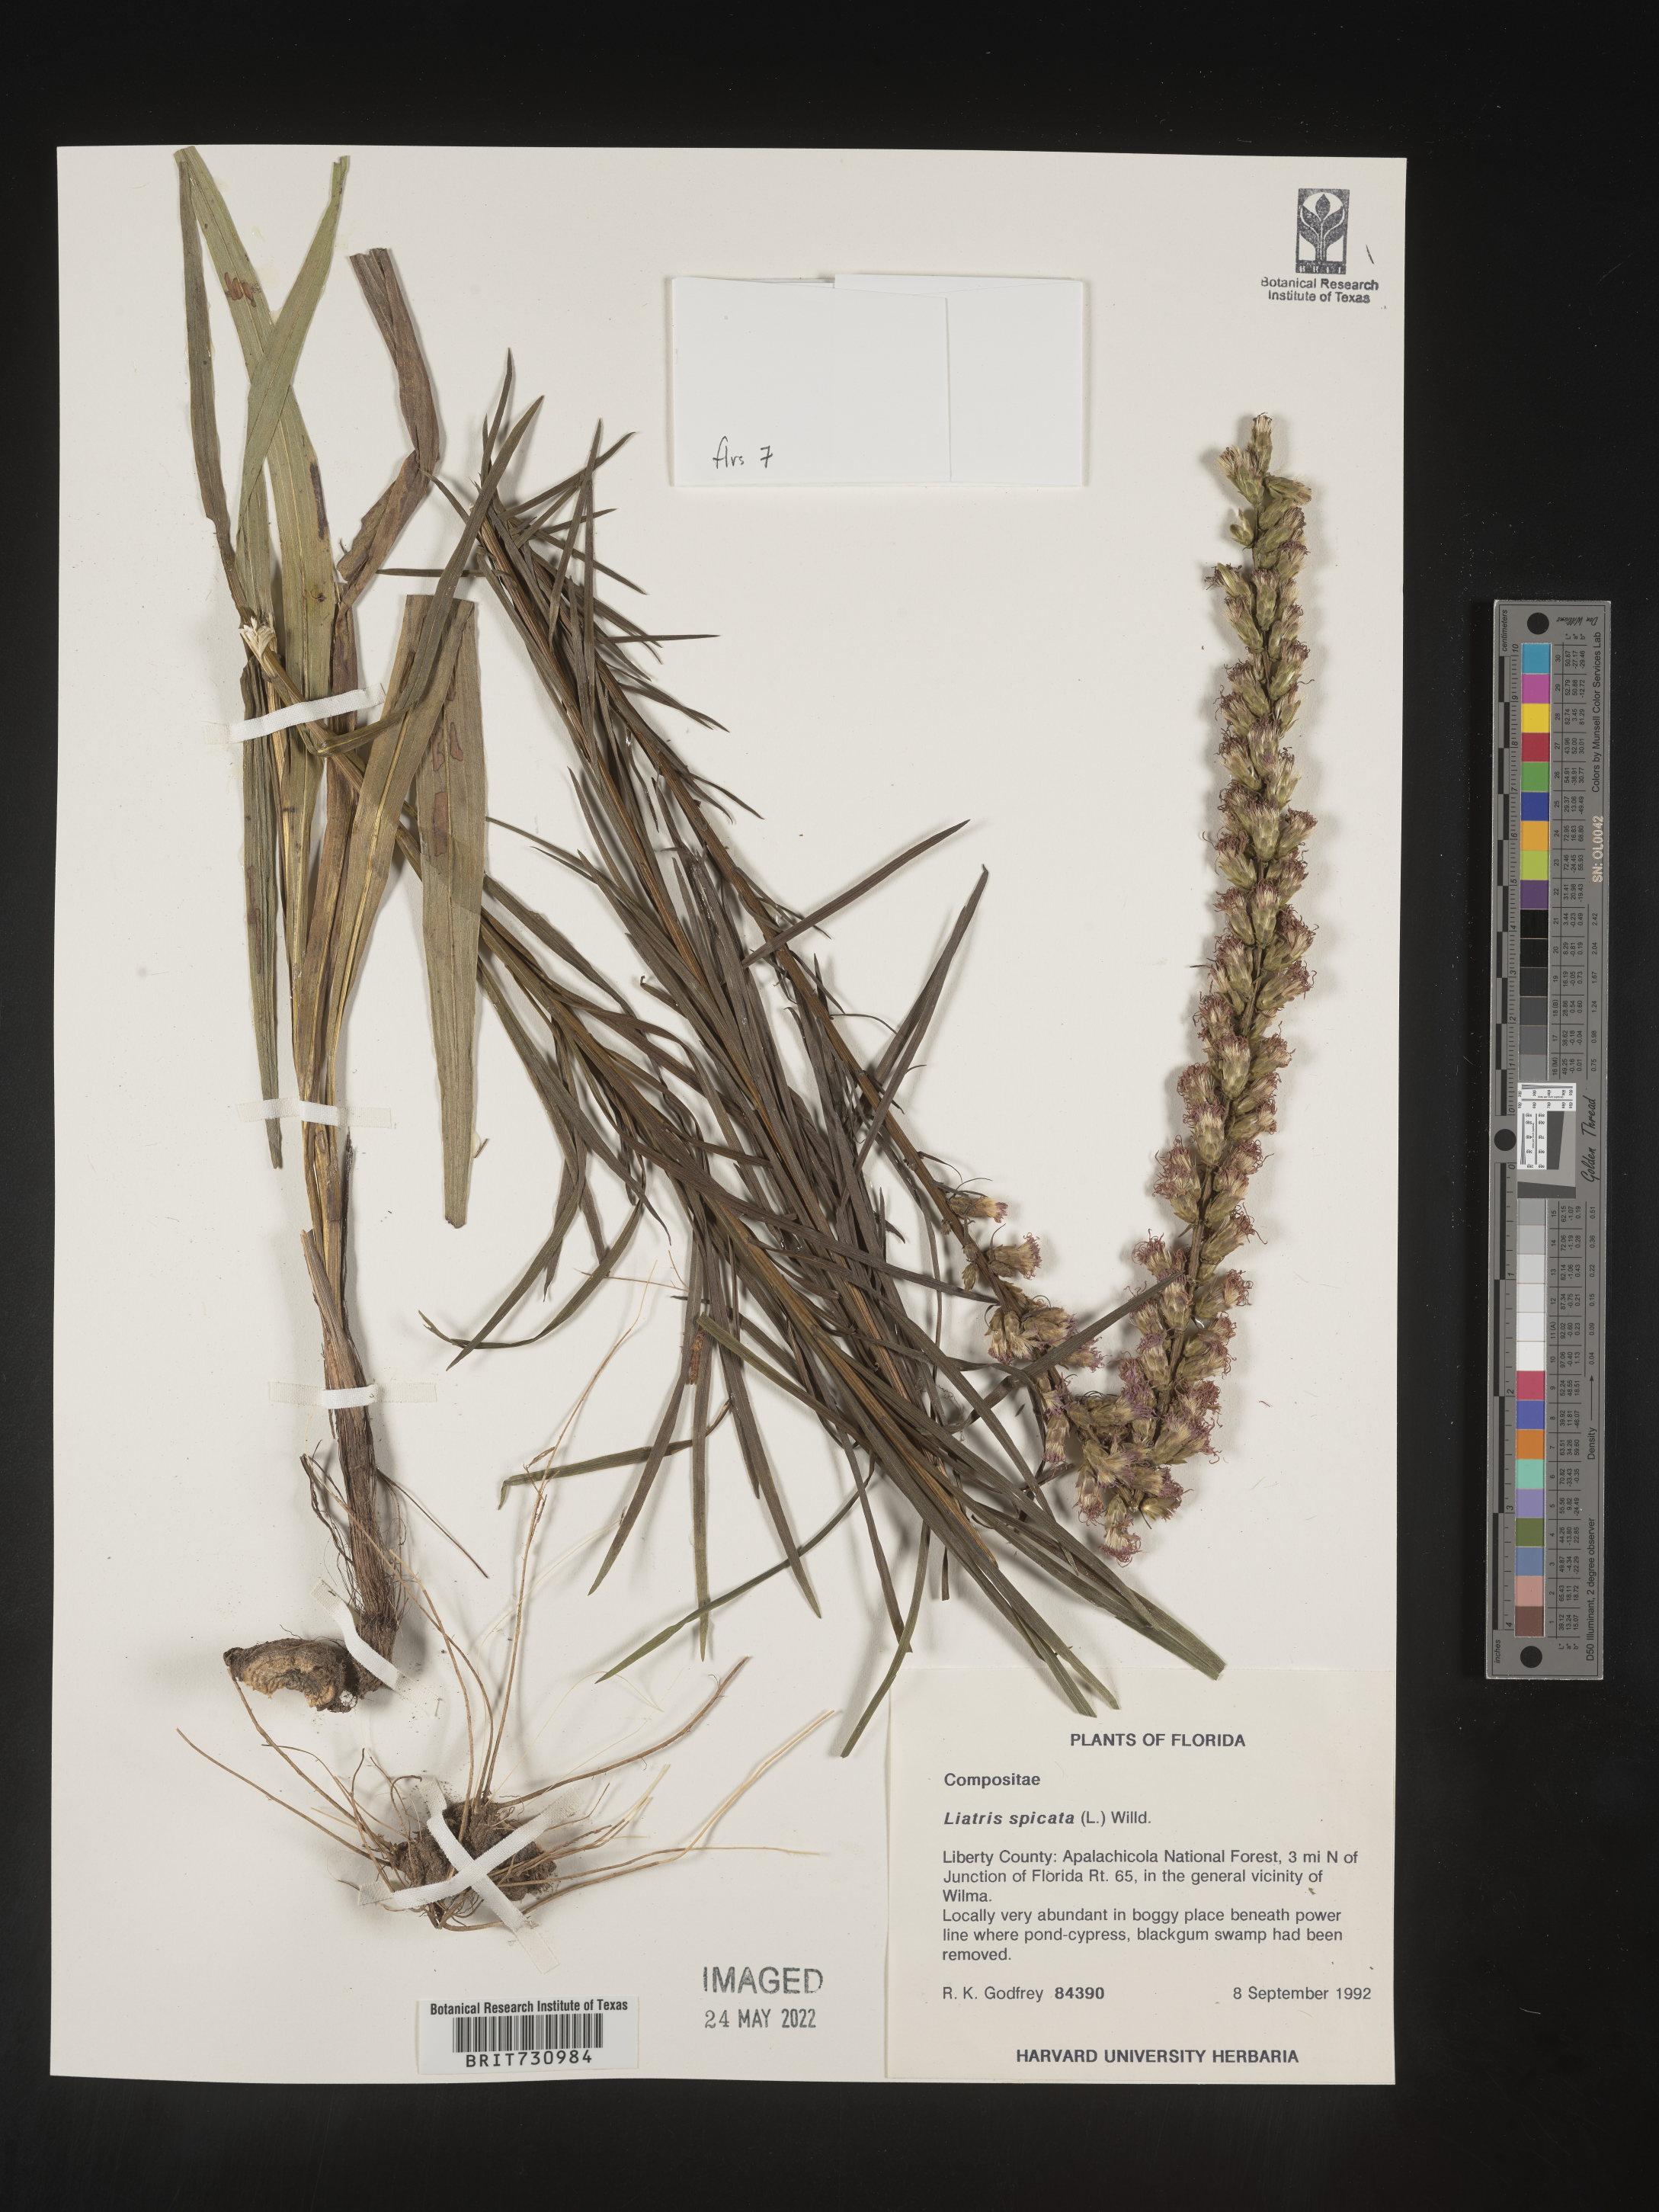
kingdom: Plantae
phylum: Tracheophyta
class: Magnoliopsida
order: Asterales
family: Asteraceae
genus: Liatris
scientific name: Liatris spicata
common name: Florist gayfeather
